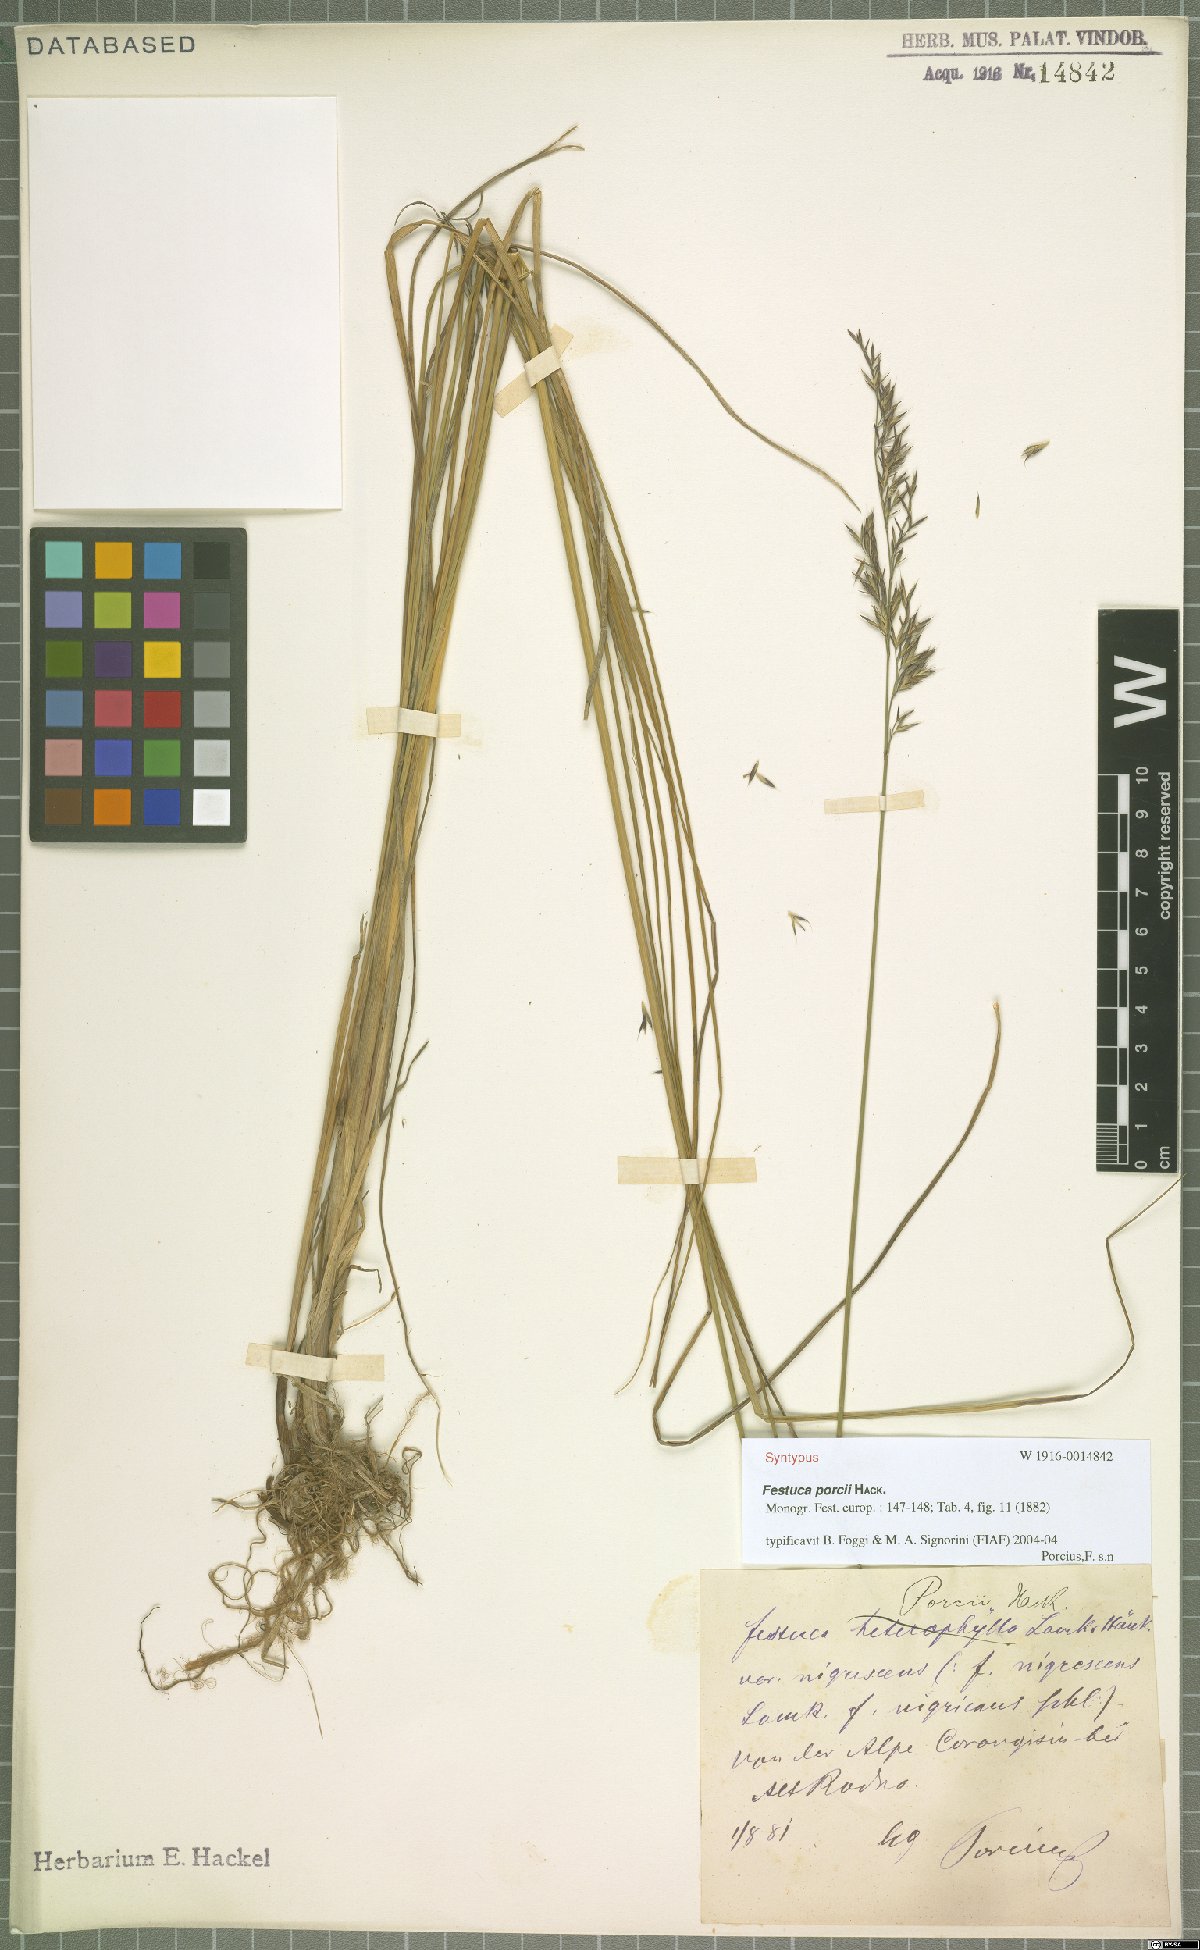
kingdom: Plantae
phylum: Tracheophyta
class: Liliopsida
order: Poales
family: Poaceae
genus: Festuca
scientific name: Festuca porcii
